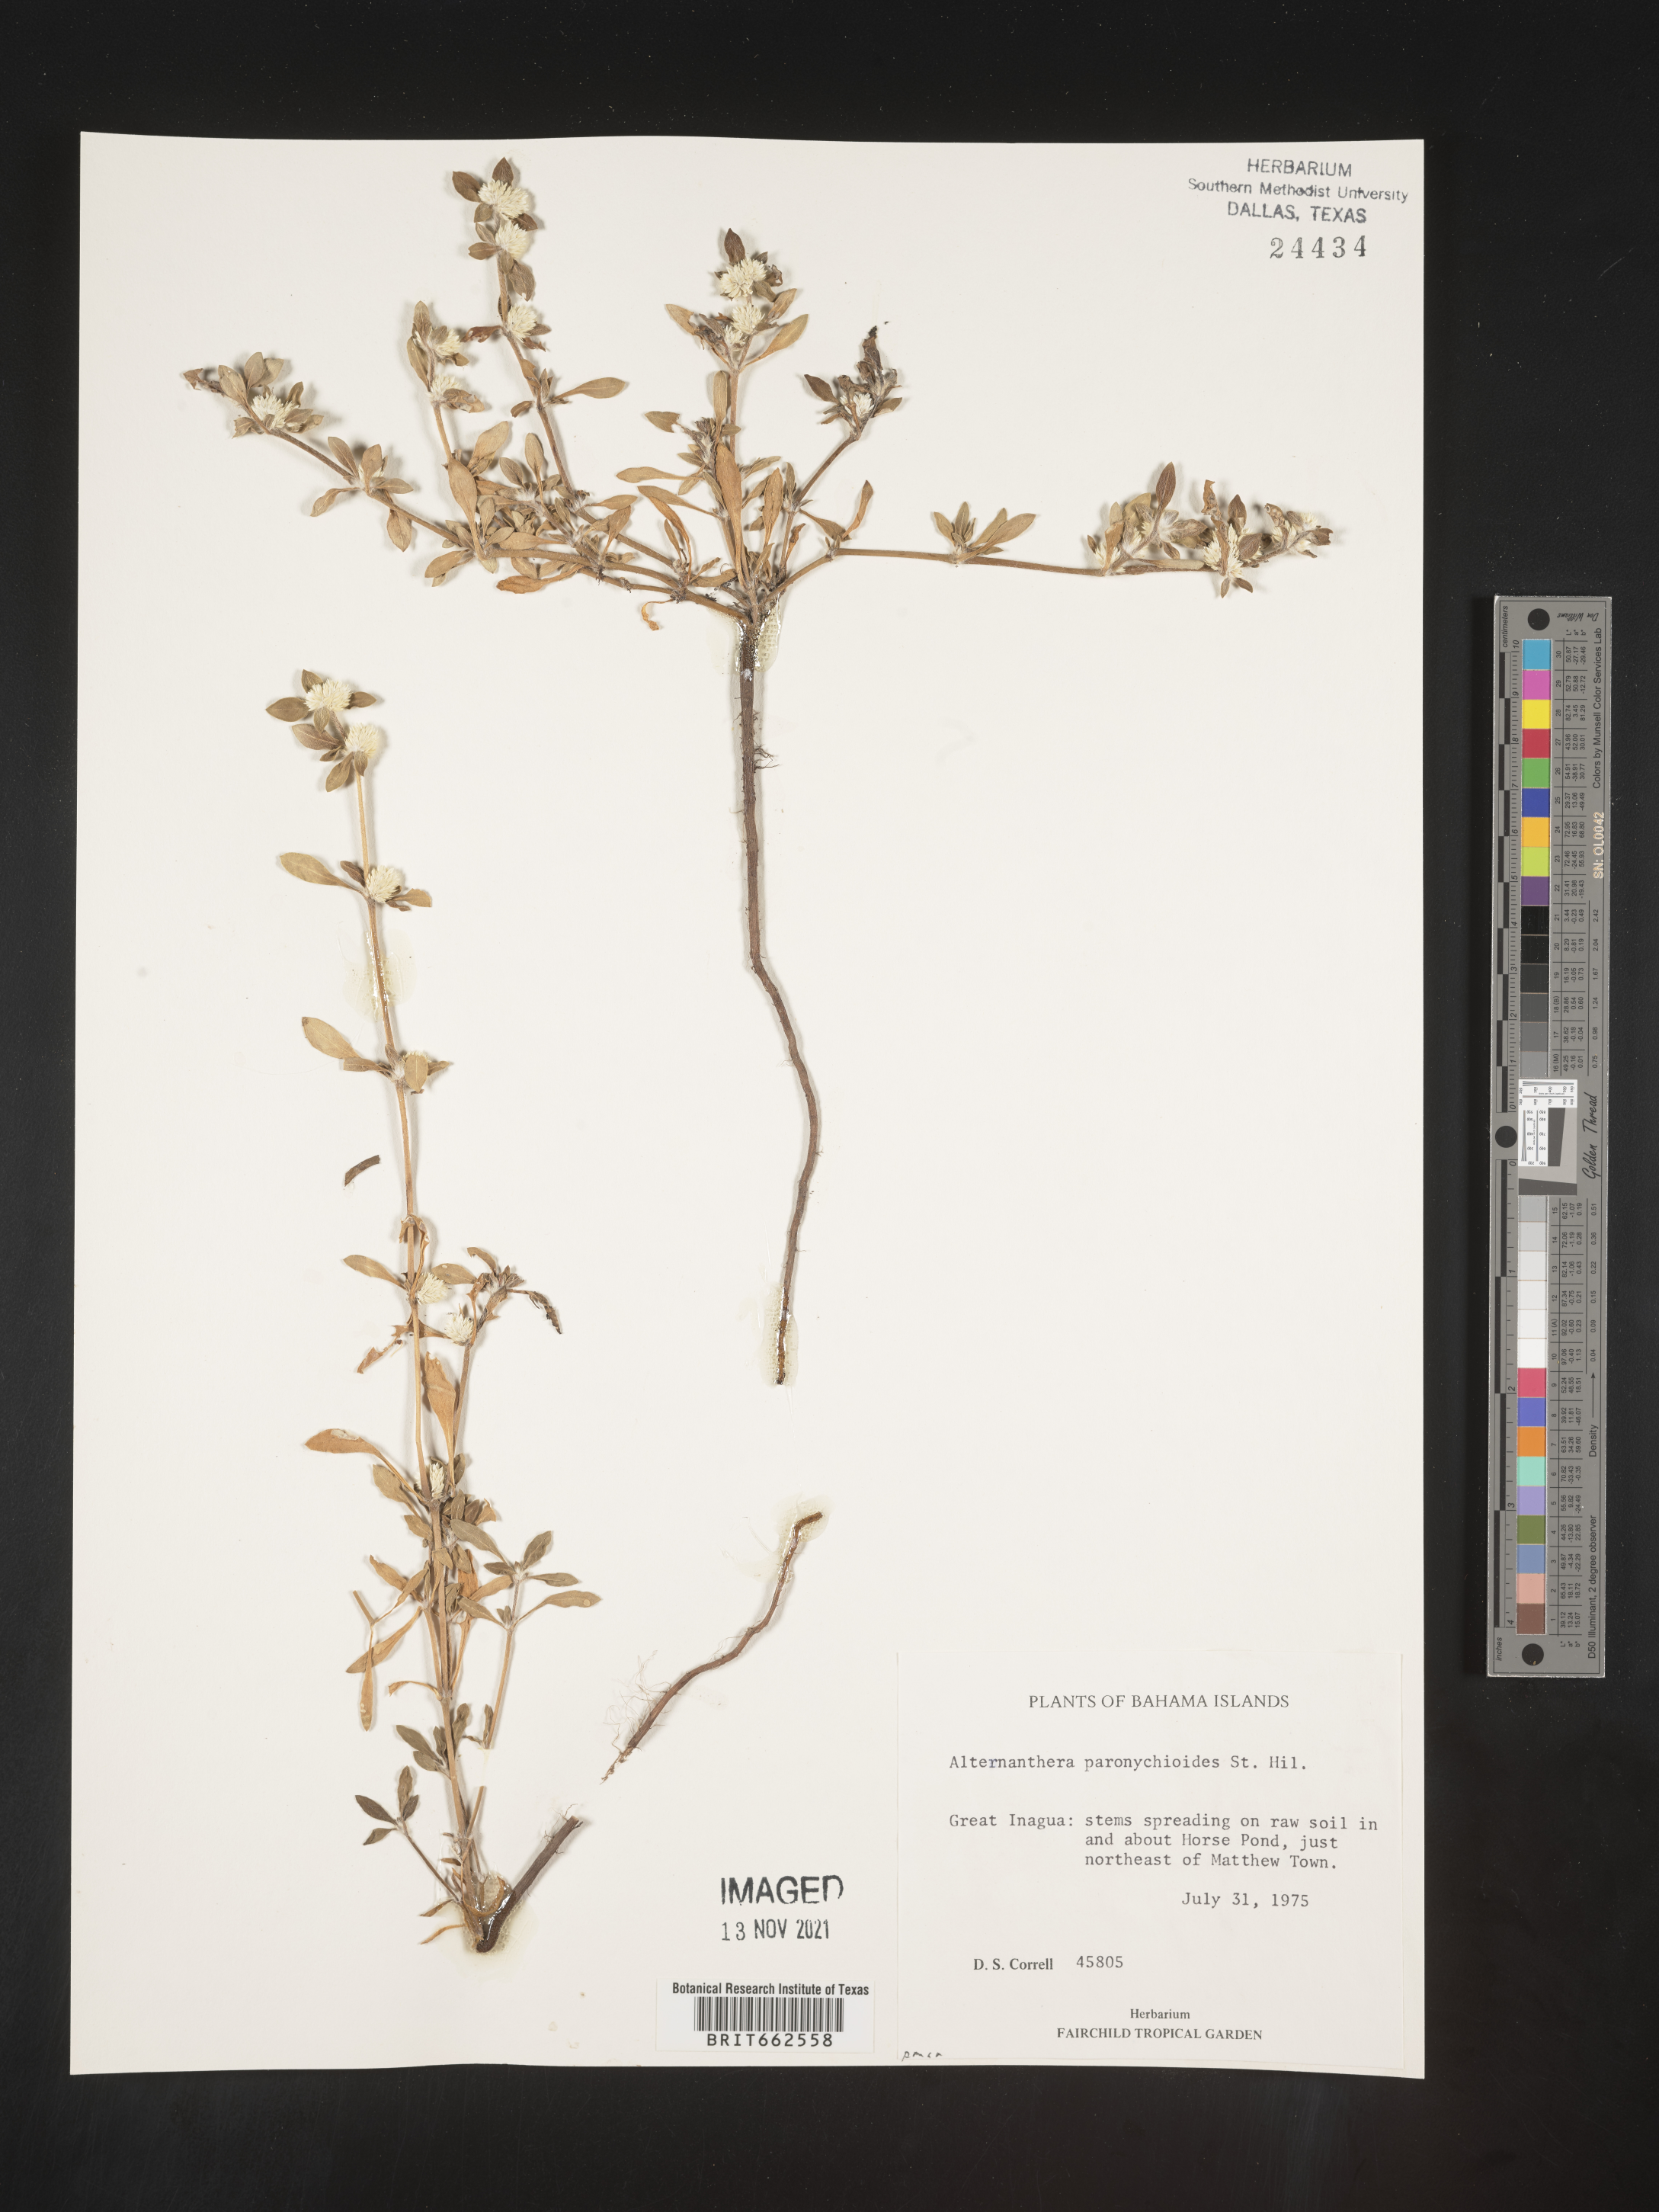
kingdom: Plantae
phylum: Tracheophyta
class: Magnoliopsida
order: Caryophyllales
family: Amaranthaceae
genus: Alternanthera
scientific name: Alternanthera
